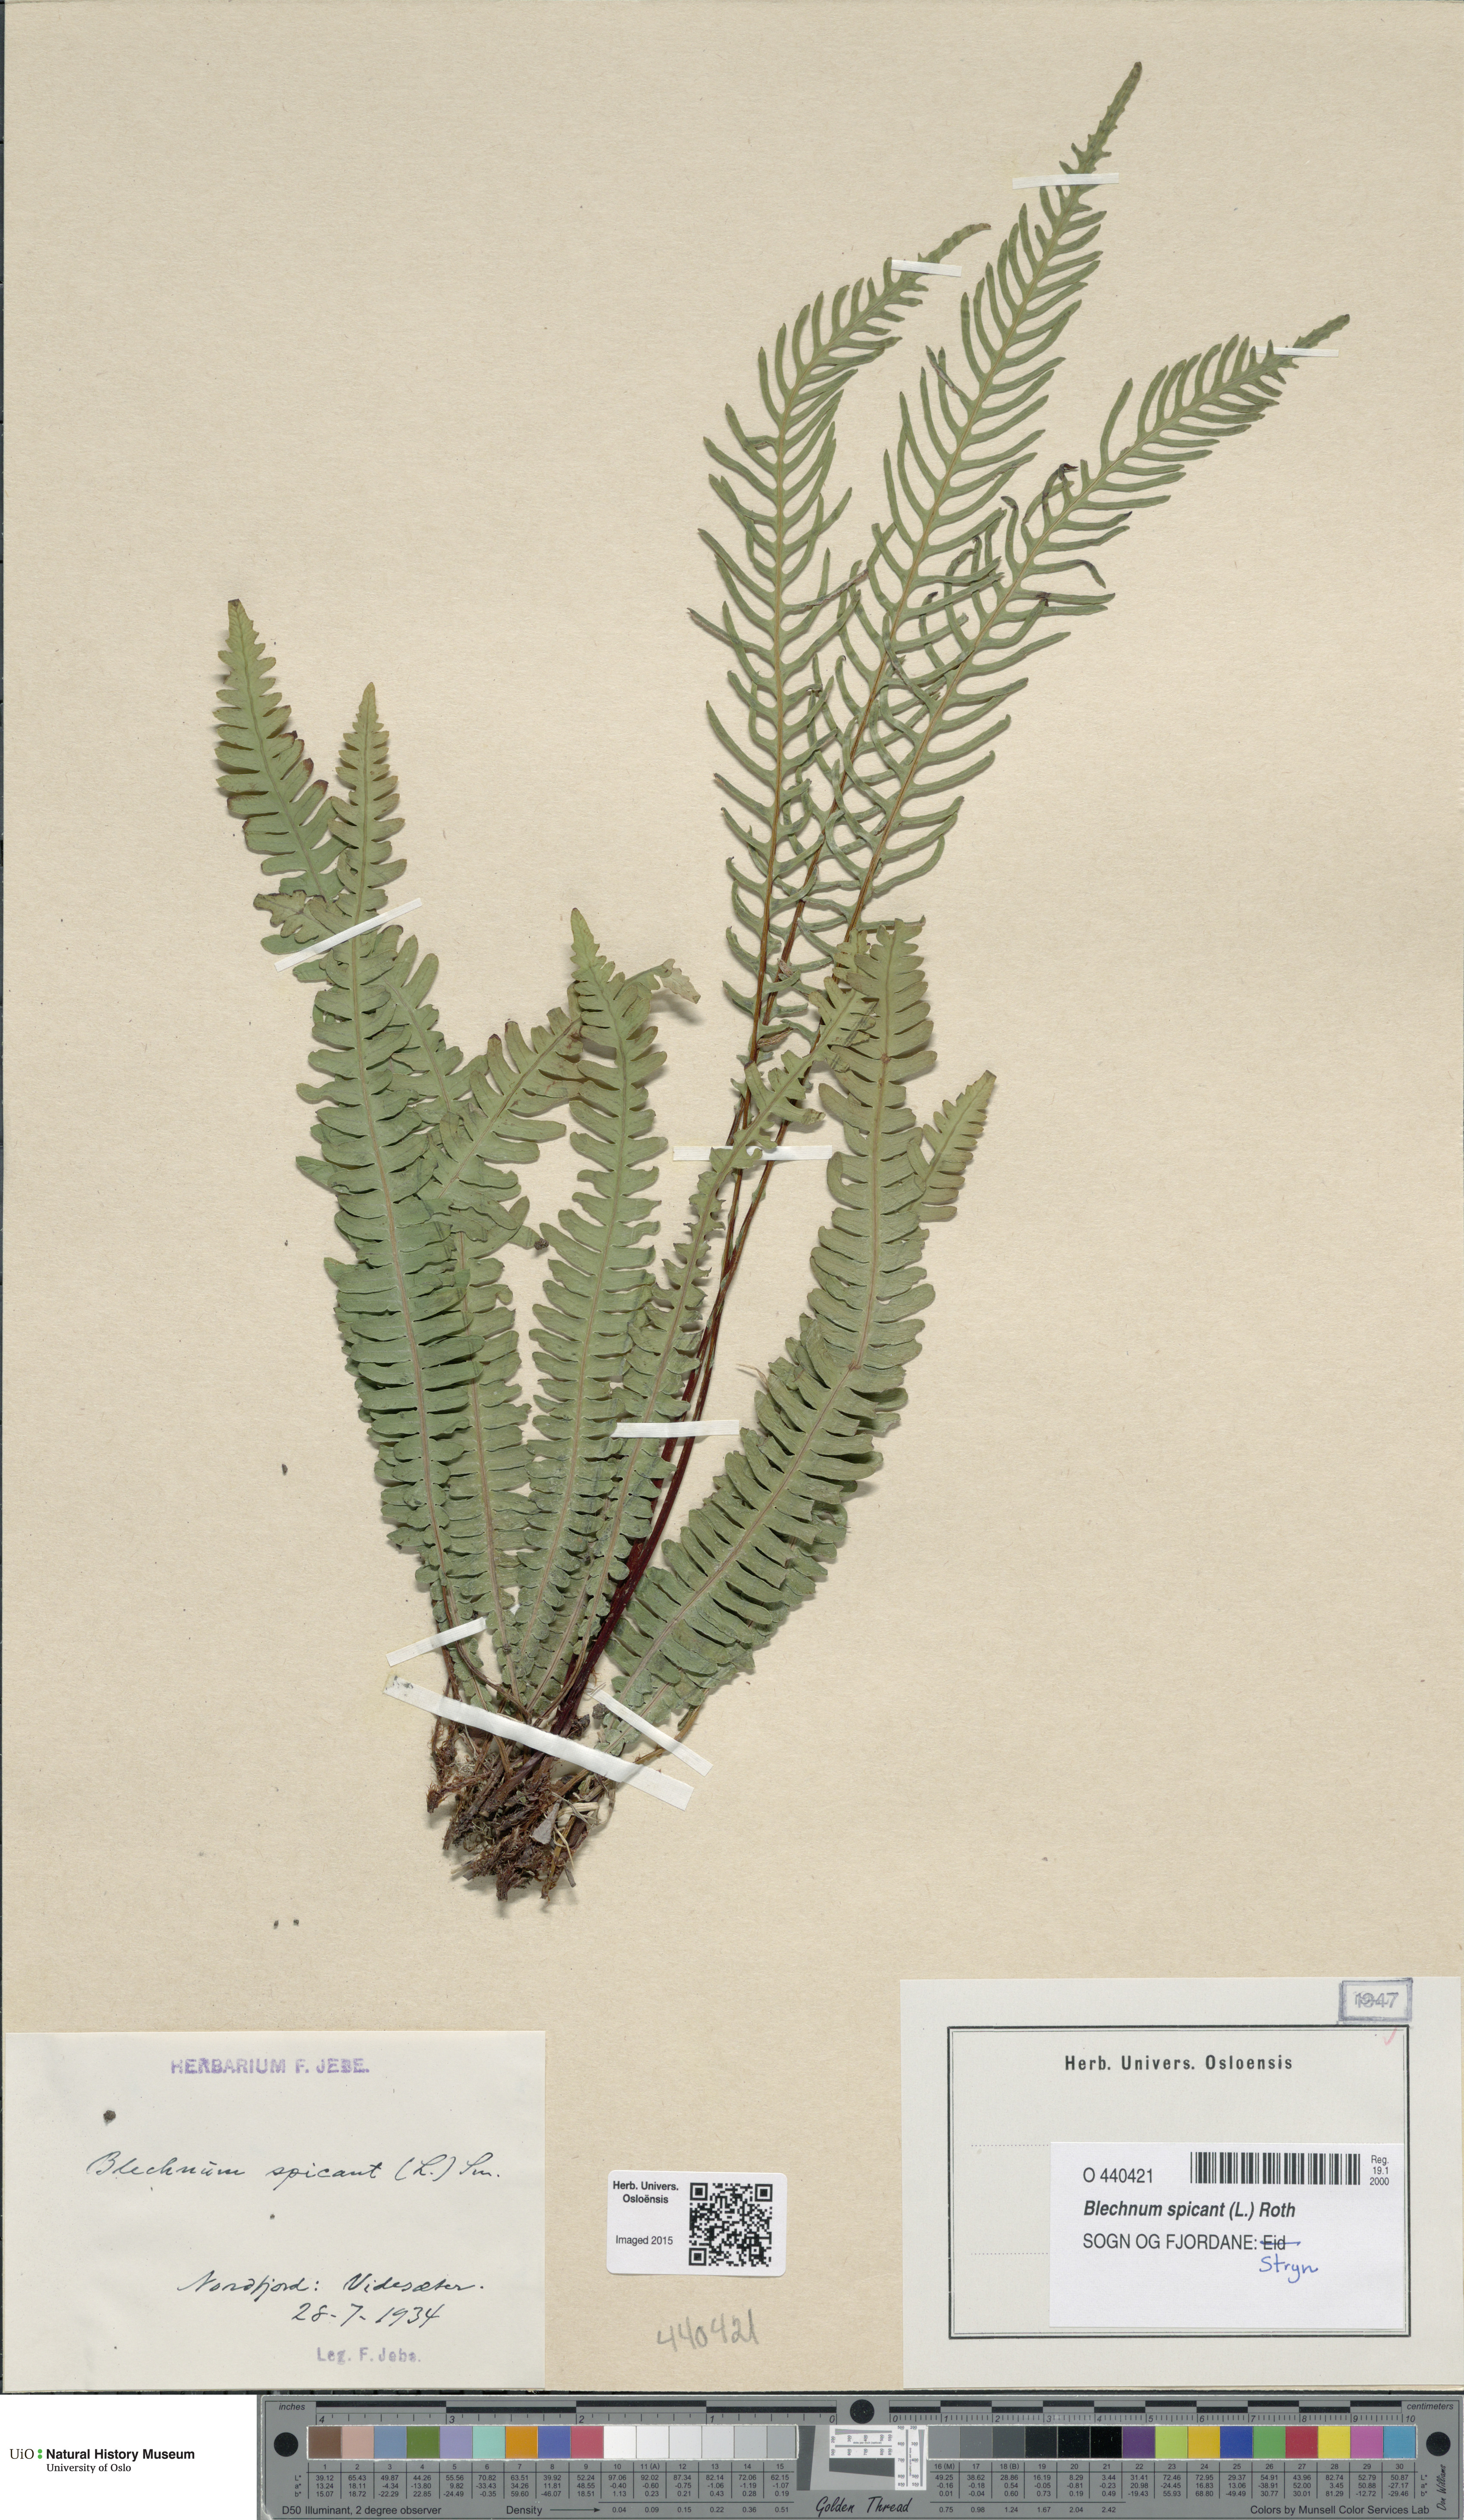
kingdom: Plantae
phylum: Tracheophyta
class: Polypodiopsida
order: Polypodiales
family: Blechnaceae
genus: Struthiopteris
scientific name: Struthiopteris spicant
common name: Deer fern
